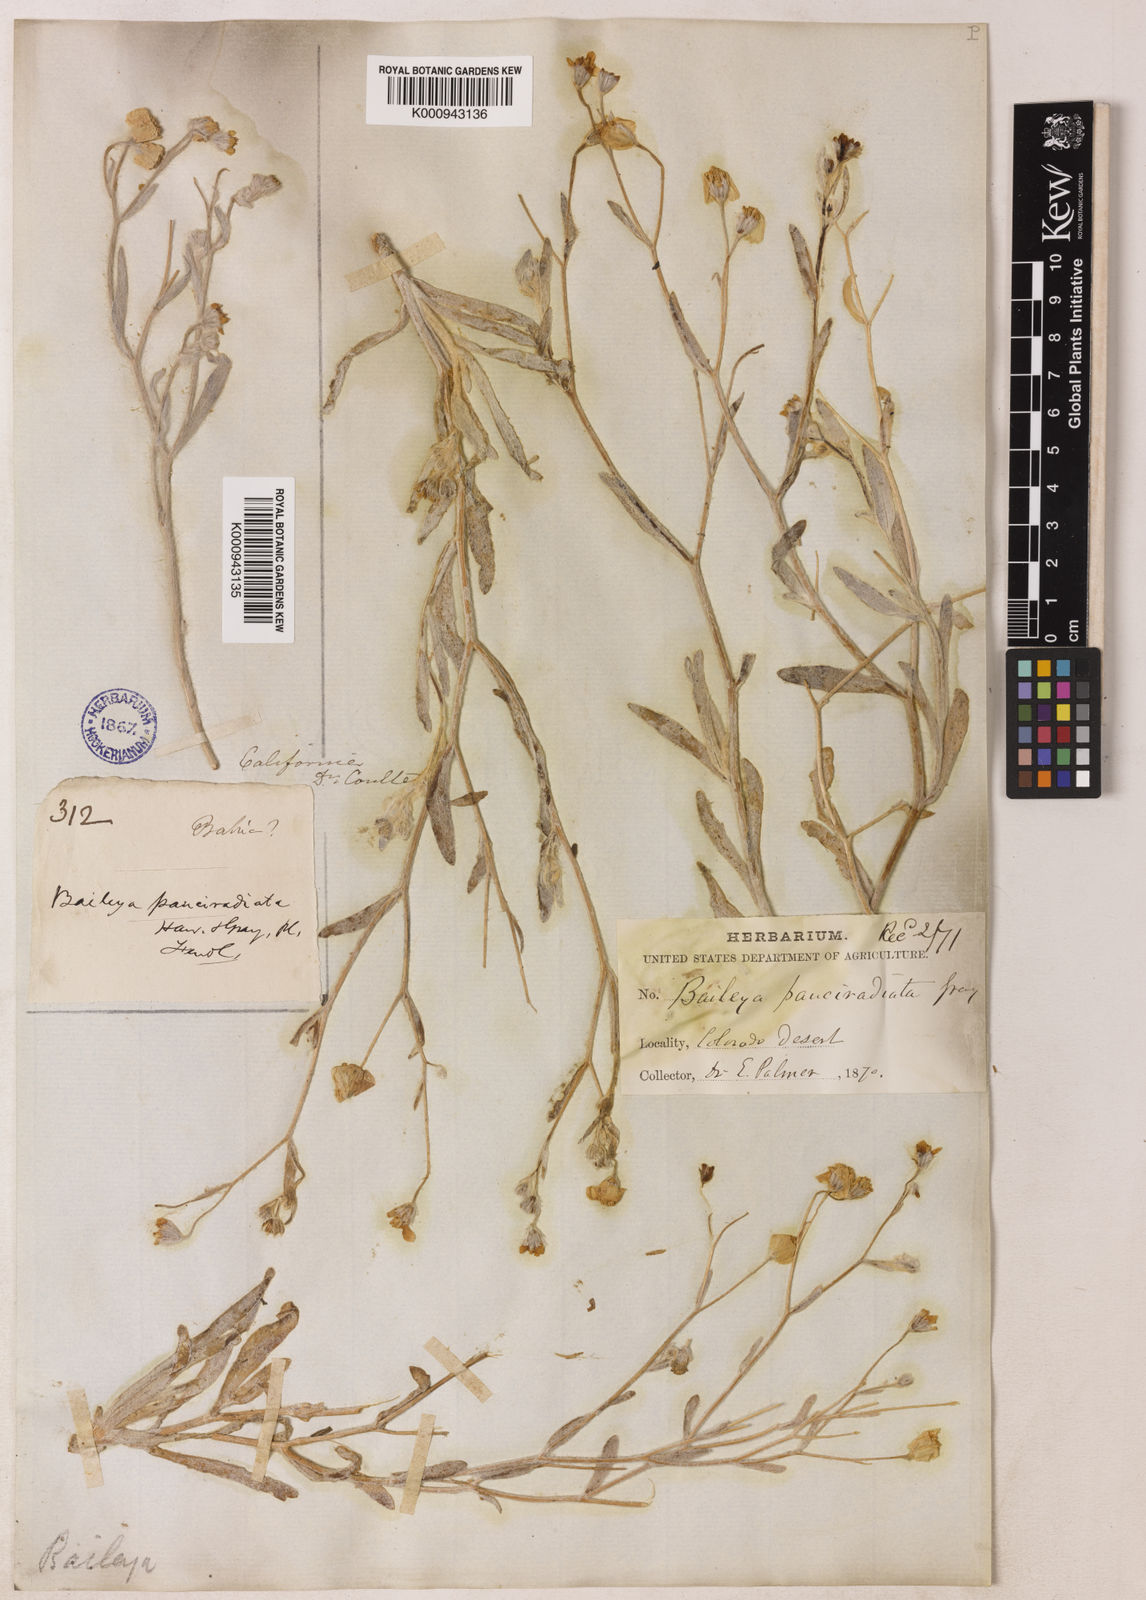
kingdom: Plantae
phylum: Tracheophyta
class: Magnoliopsida
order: Asterales
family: Asteraceae
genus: Hymenoxys
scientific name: Hymenoxys richardsonii
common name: Pingue rubberweed
